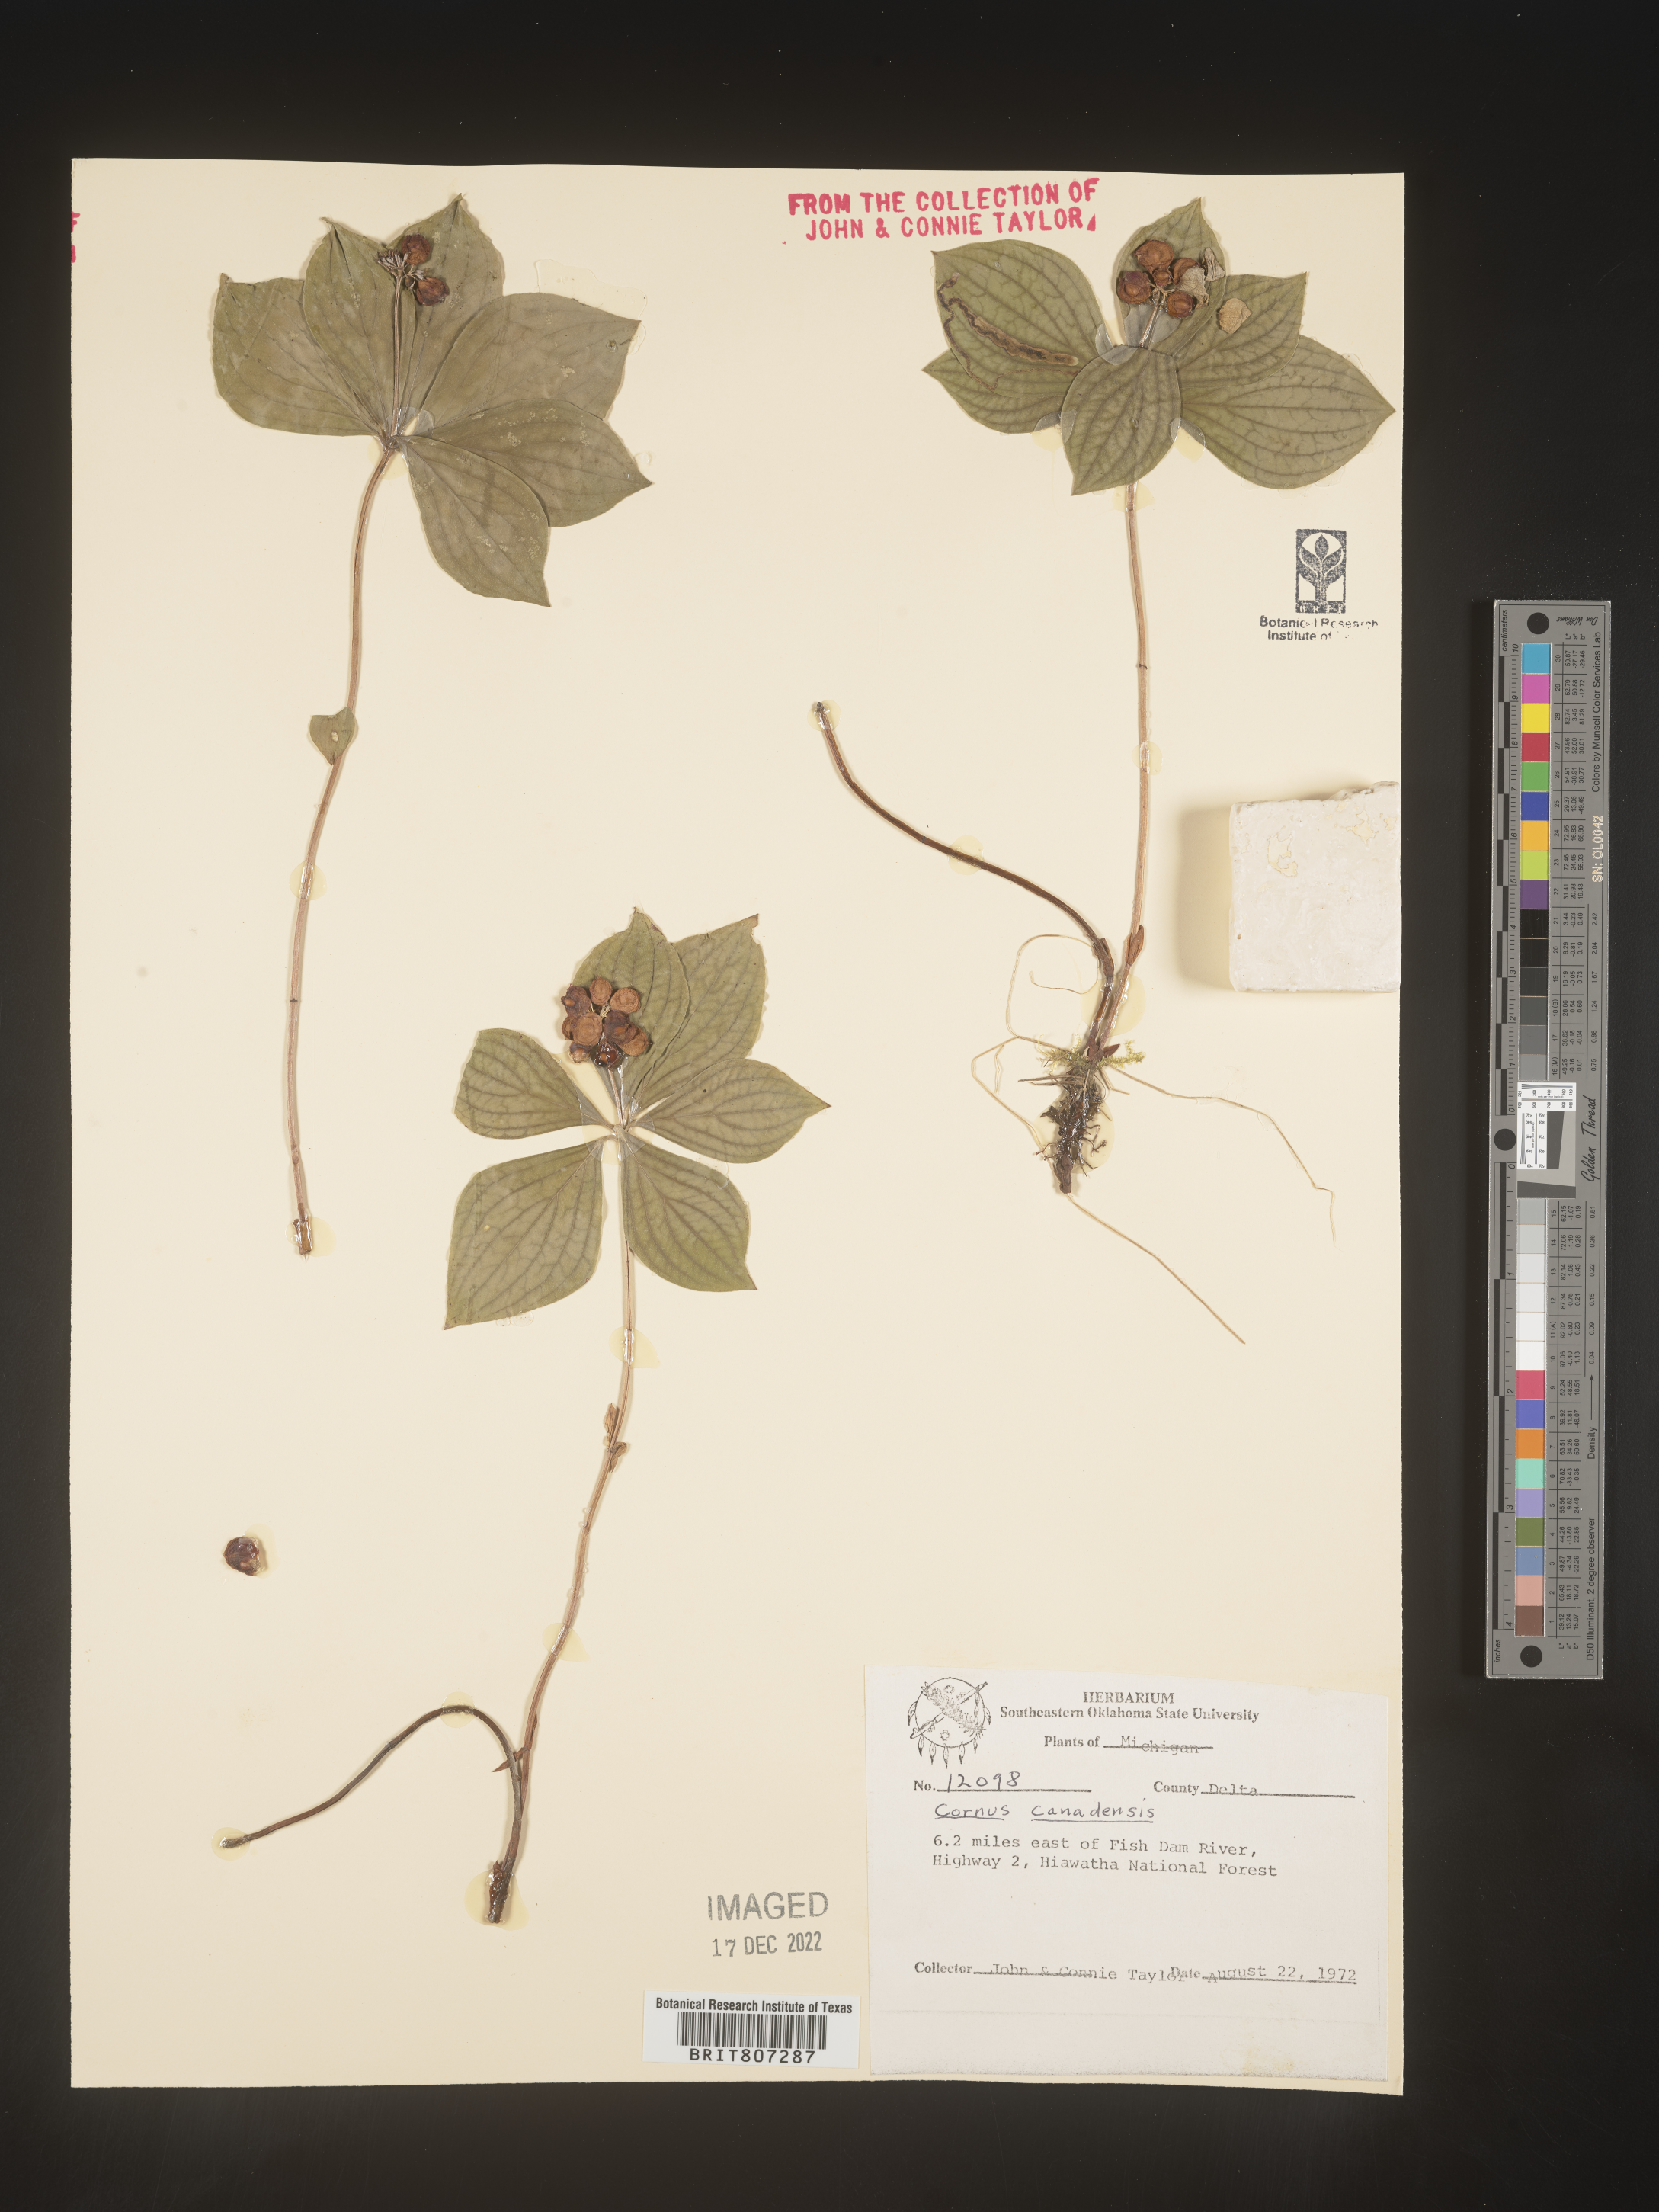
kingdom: Plantae
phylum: Tracheophyta
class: Magnoliopsida
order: Cornales
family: Cornaceae
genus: Cornus
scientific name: Cornus canadensis
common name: Creeping dogwood
